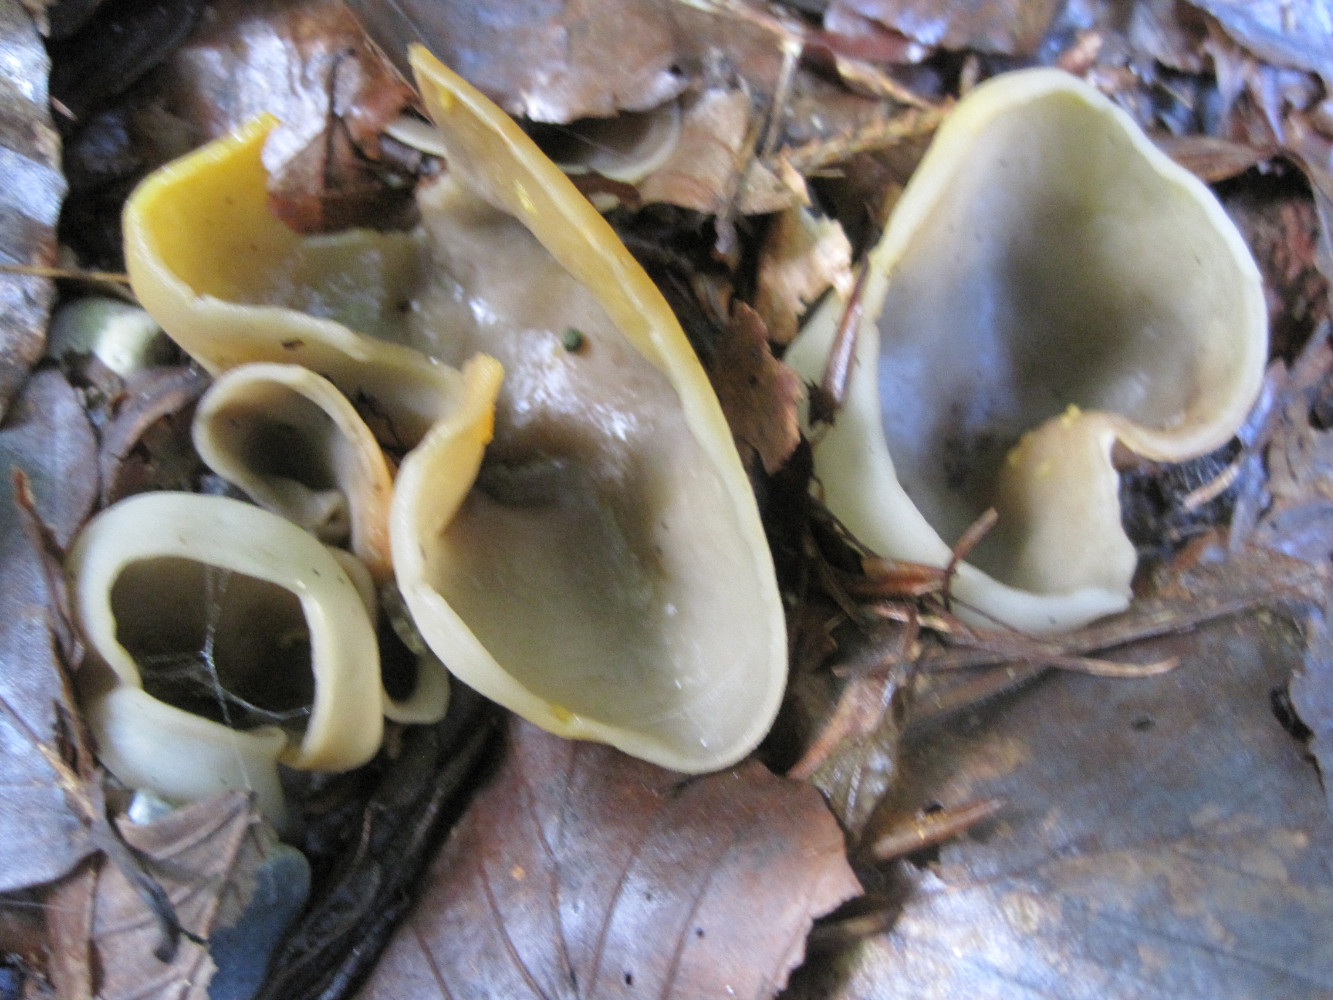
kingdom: Fungi
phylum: Ascomycota
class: Pezizomycetes
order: Pezizales
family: Pezizaceae
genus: Paragalactinia
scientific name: Paragalactinia michelii
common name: gulkødet bægersvamp
